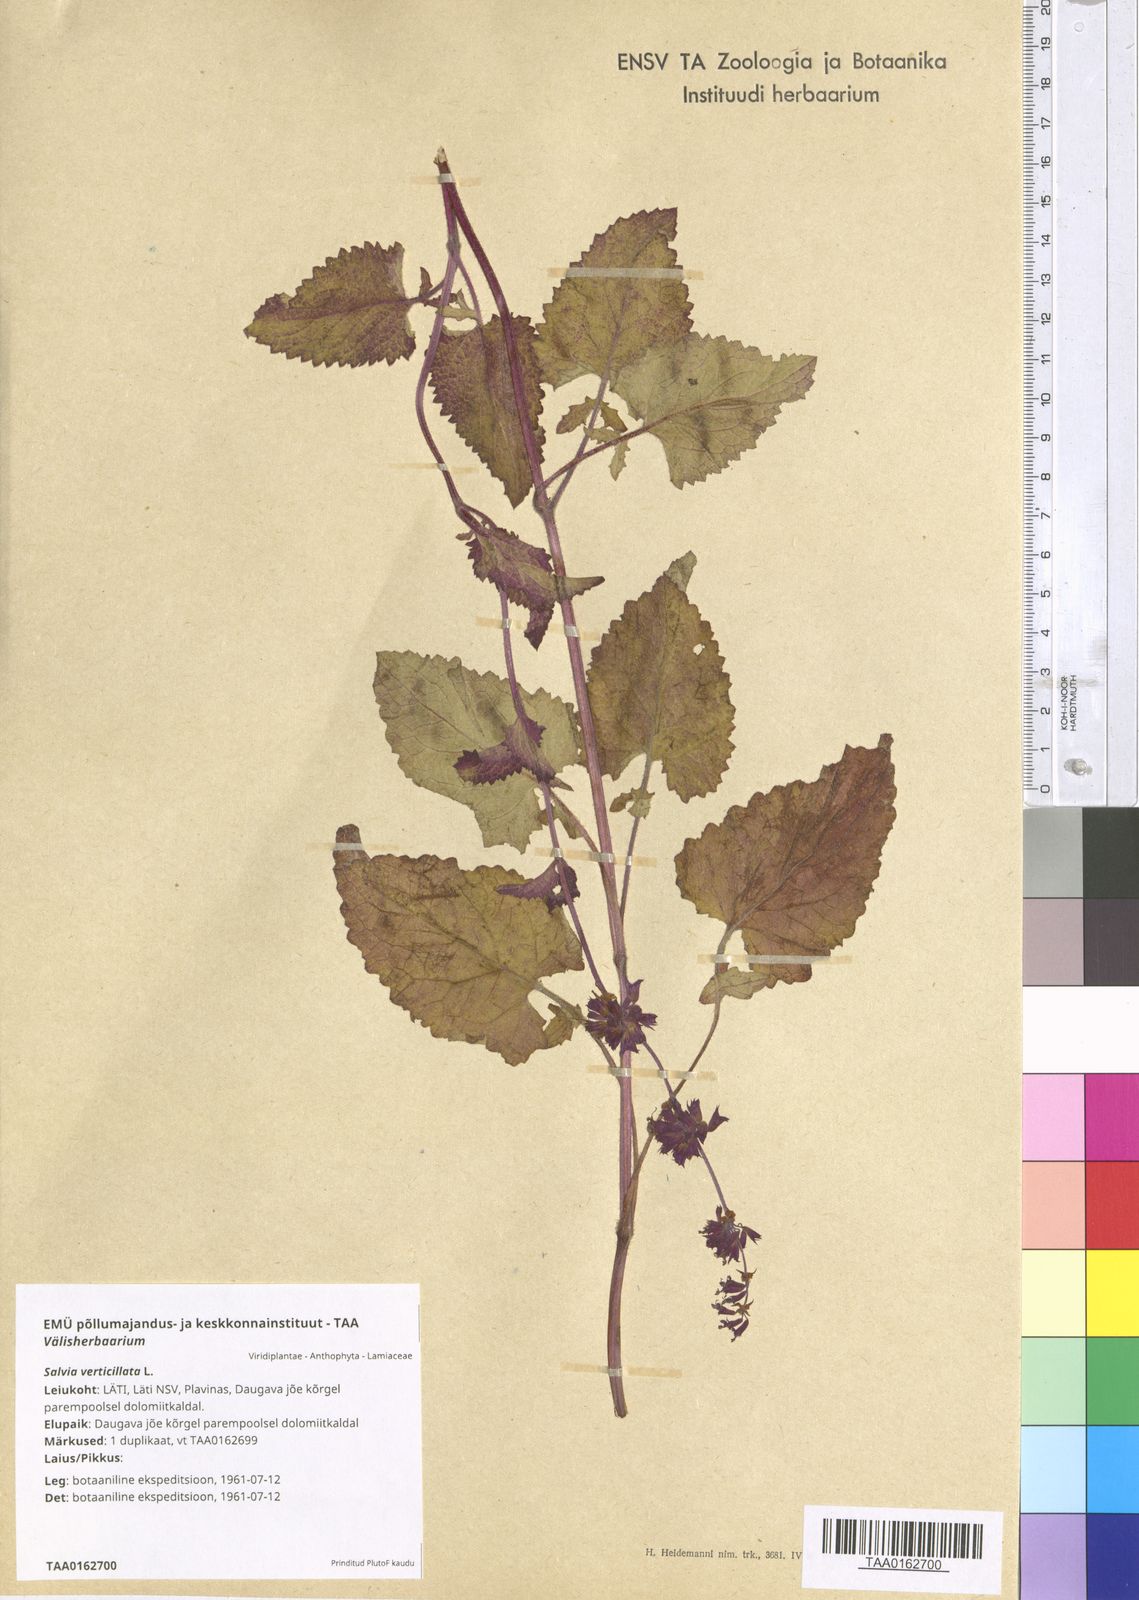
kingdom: Plantae
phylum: Tracheophyta
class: Magnoliopsida
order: Lamiales
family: Lamiaceae
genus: Salvia
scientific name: Salvia verticillata
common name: Whorled clary
